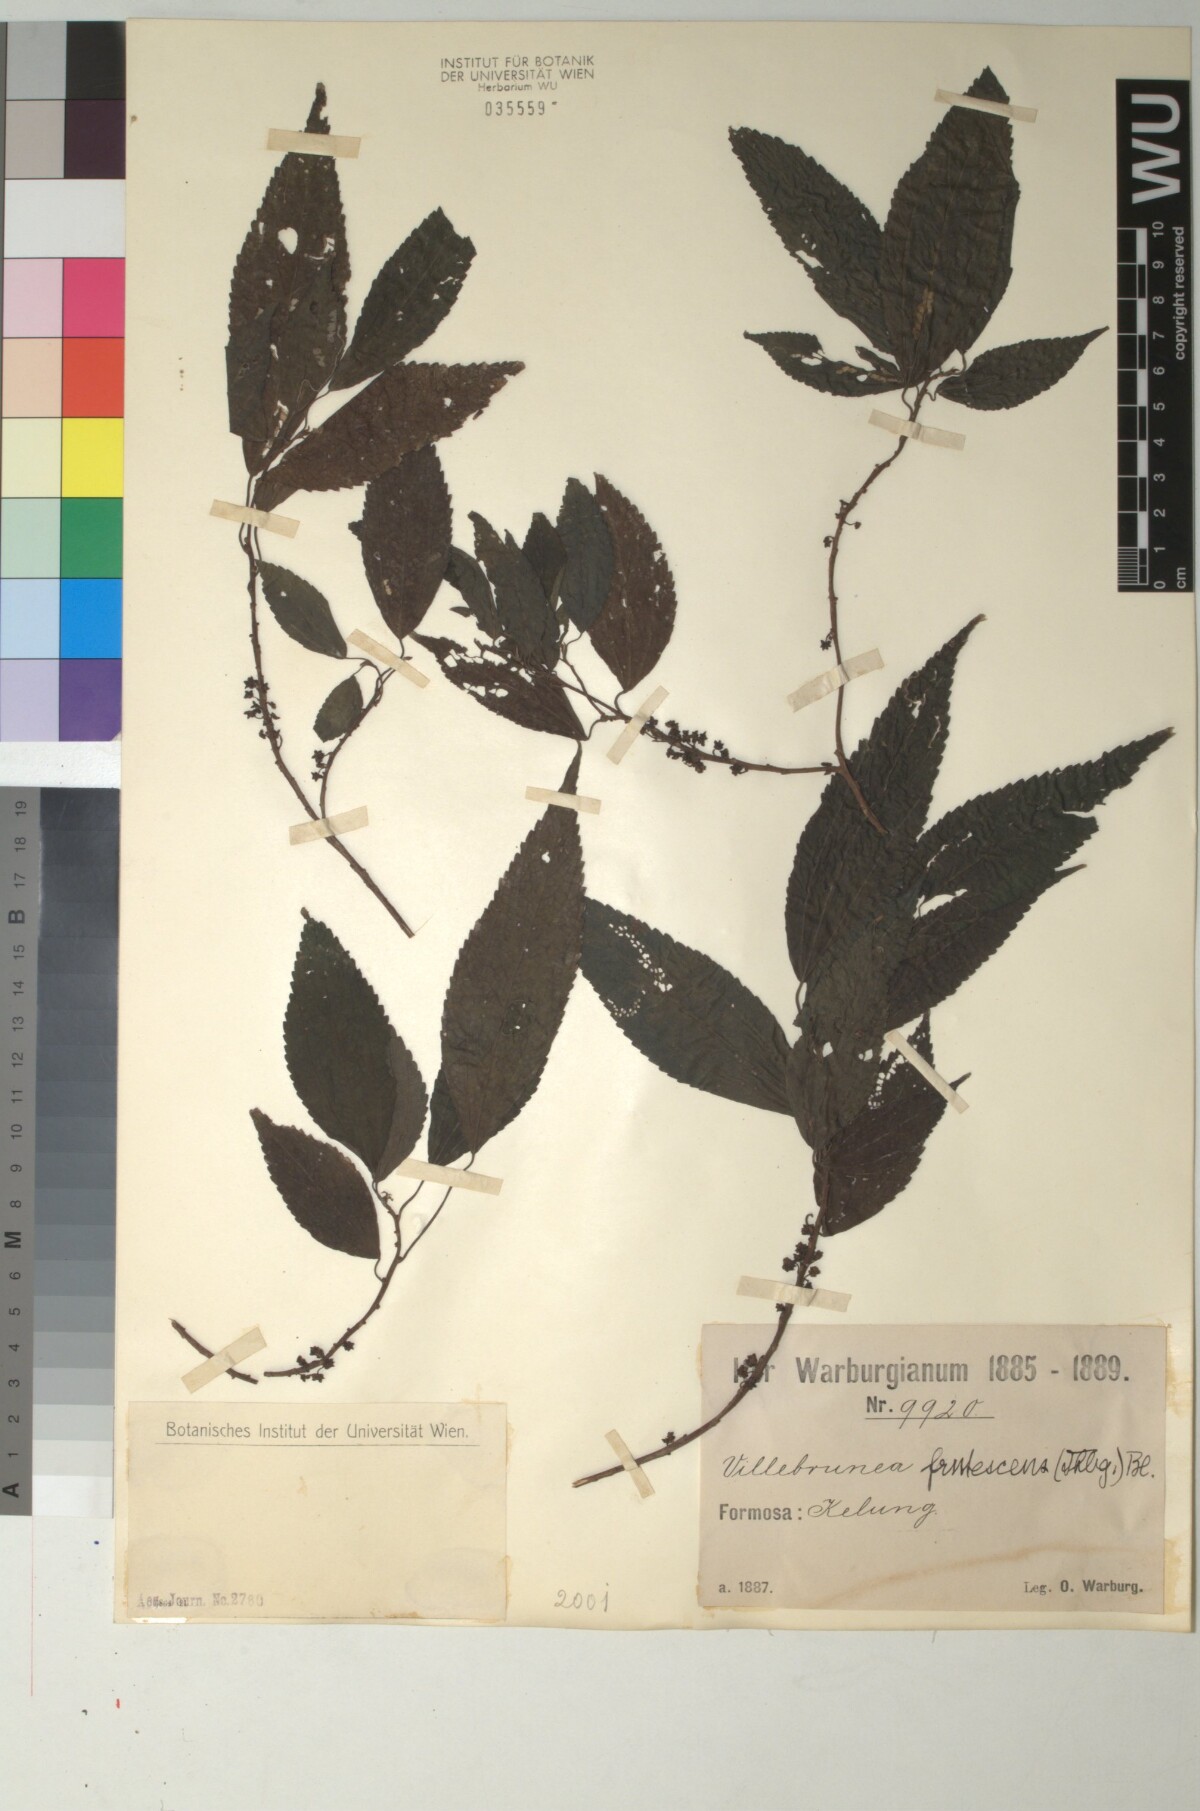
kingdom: Plantae
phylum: Tracheophyta
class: Magnoliopsida
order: Rosales
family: Urticaceae
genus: Oreocnide
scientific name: Oreocnide frutescens
